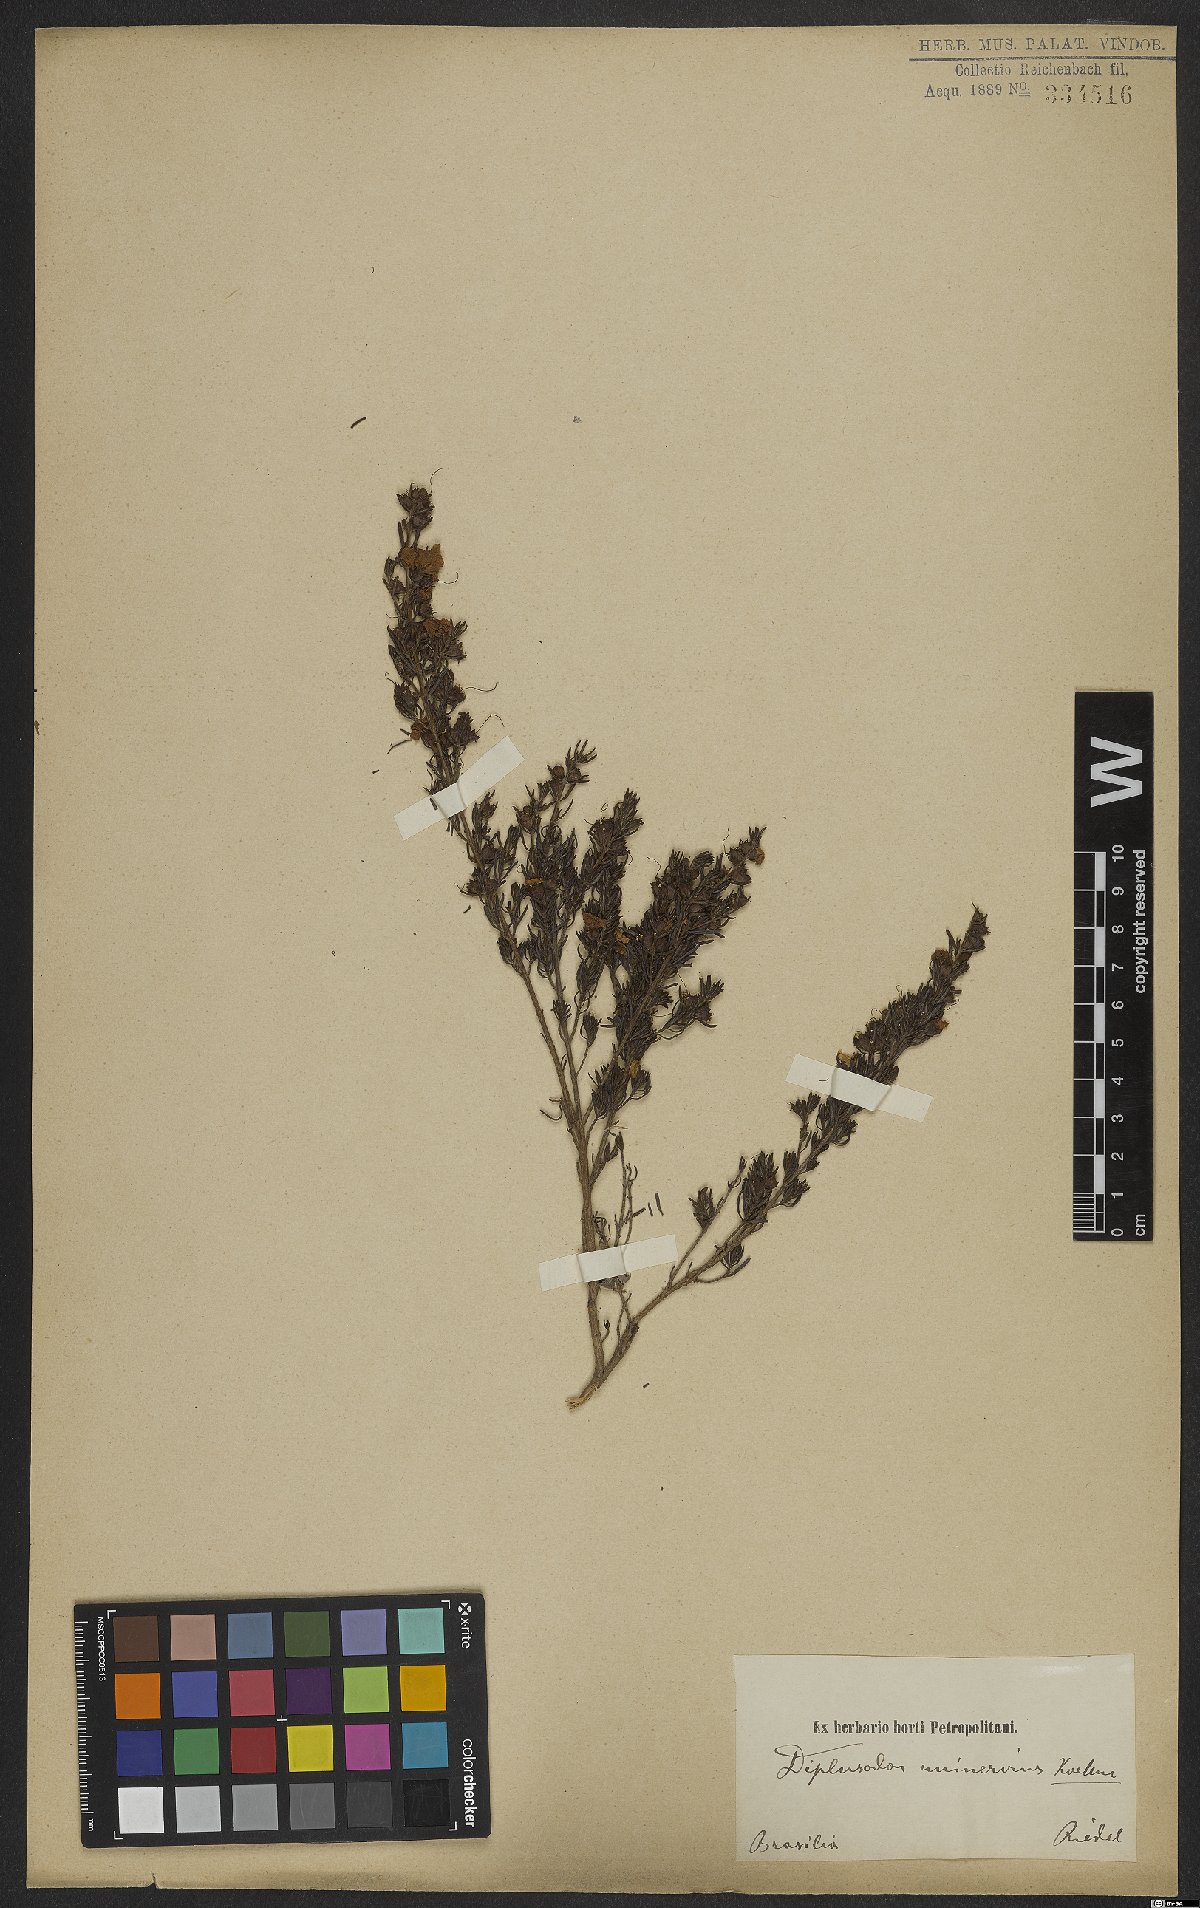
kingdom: Plantae
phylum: Tracheophyta
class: Magnoliopsida
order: Myrtales
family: Lythraceae
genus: Diplusodon
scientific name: Diplusodon uninervius
